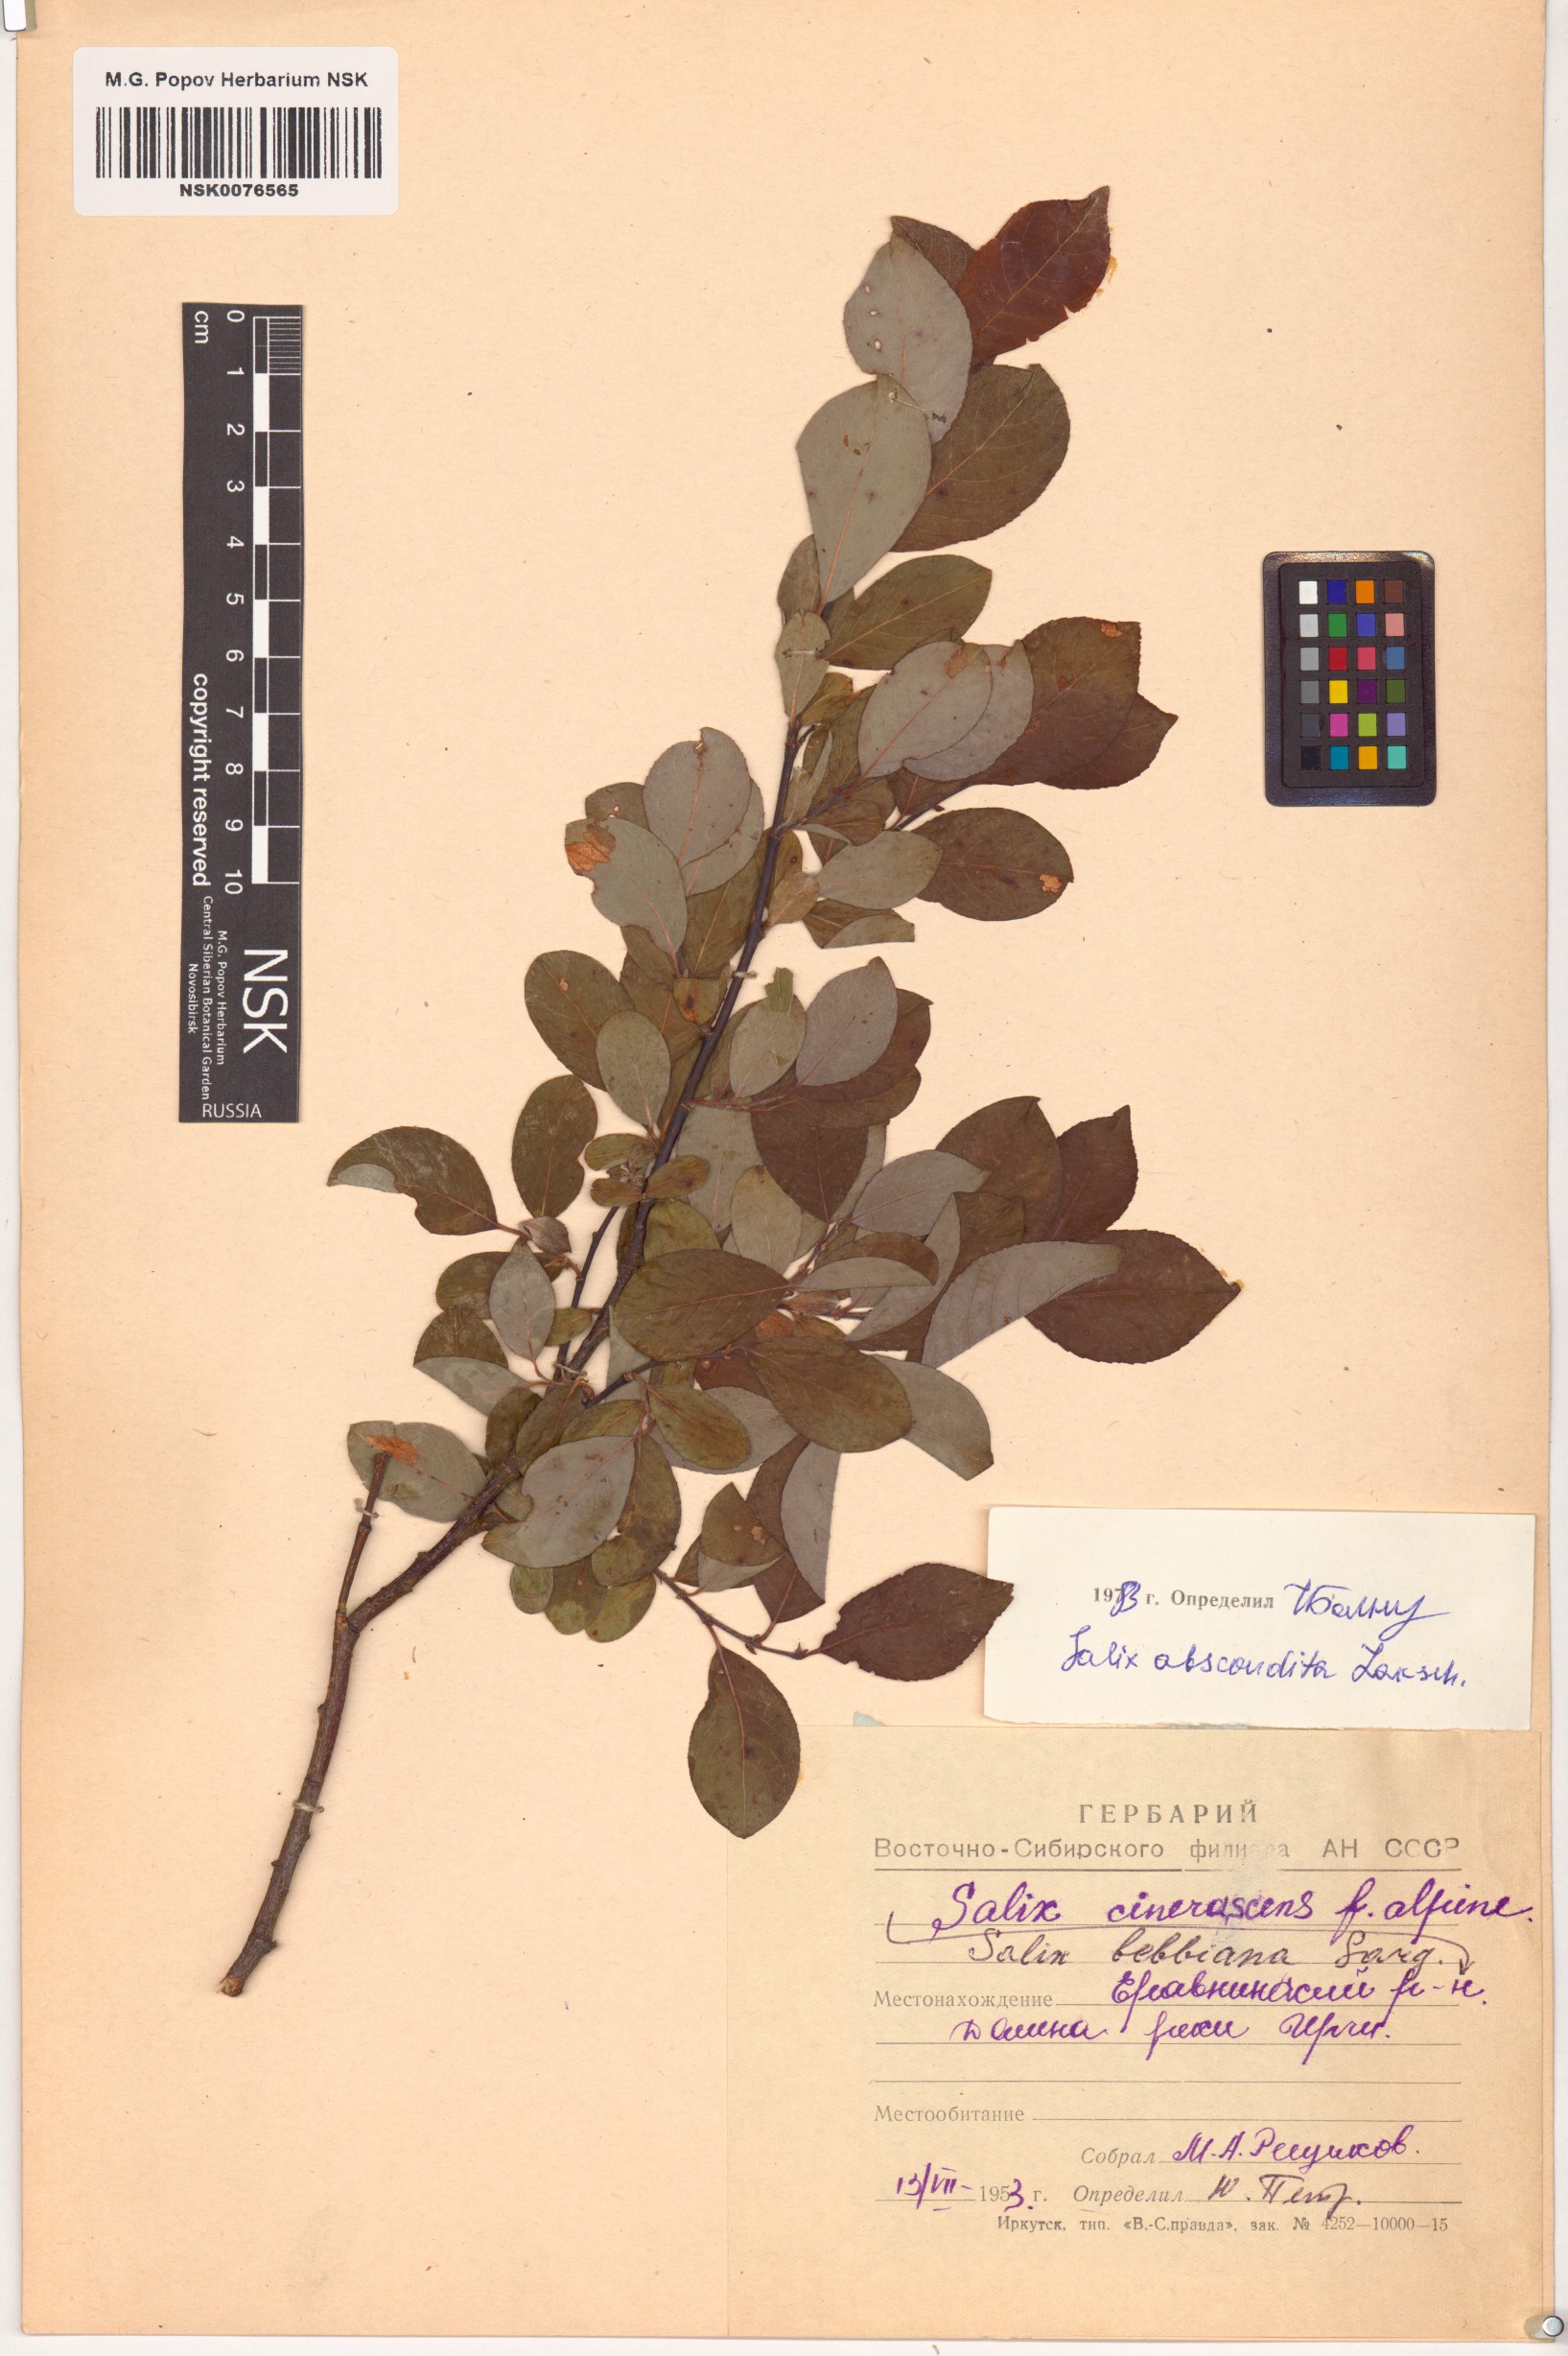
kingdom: Plantae
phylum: Tracheophyta
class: Magnoliopsida
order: Malpighiales
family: Salicaceae
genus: Salix
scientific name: Salix abscondita
